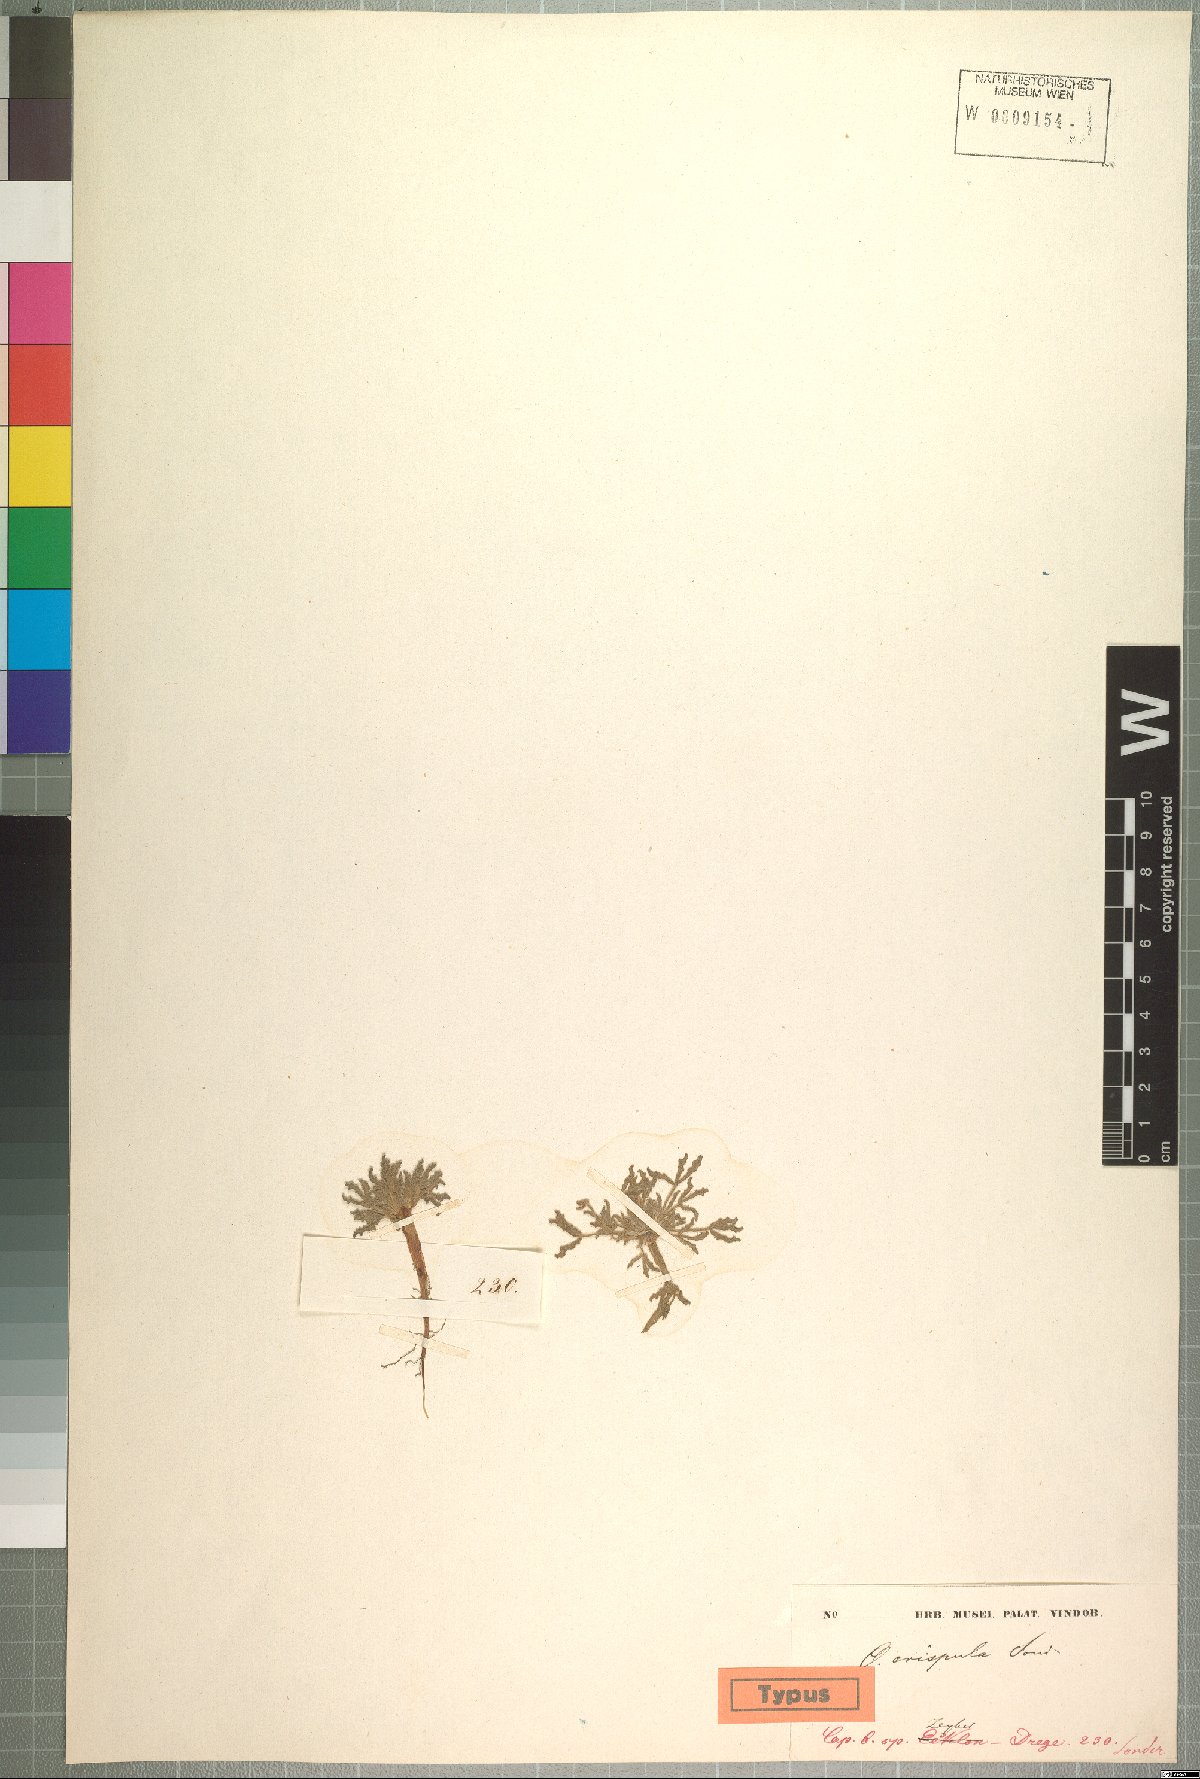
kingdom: Plantae
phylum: Tracheophyta
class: Magnoliopsida
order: Oxalidales
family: Oxalidaceae
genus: Oxalis
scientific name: Oxalis crispula
